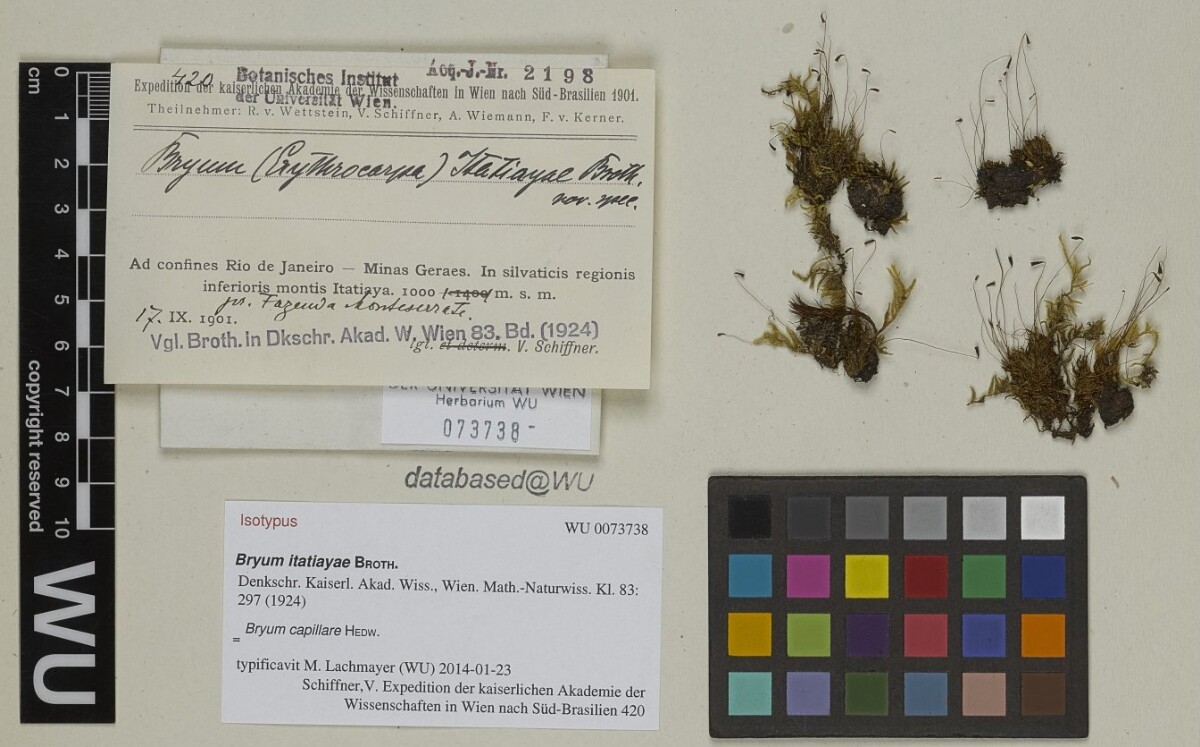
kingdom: Plantae
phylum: Bryophyta
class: Bryopsida
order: Bryales
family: Bryaceae
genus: Rosulabryum
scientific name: Rosulabryum capillare
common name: Capillary thread-moss
